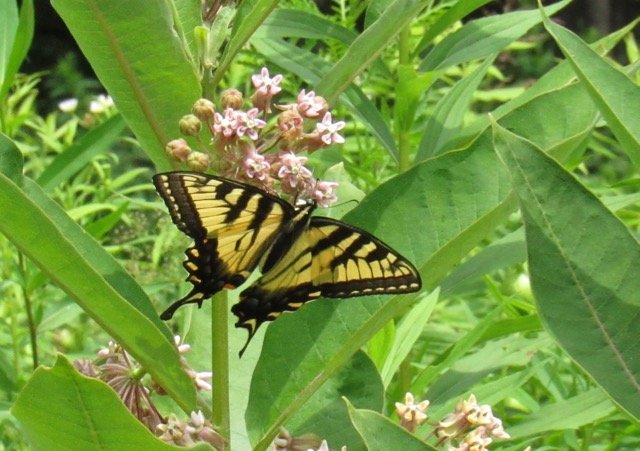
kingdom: Animalia
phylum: Arthropoda
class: Insecta
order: Lepidoptera
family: Papilionidae
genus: Pterourus
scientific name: Pterourus
